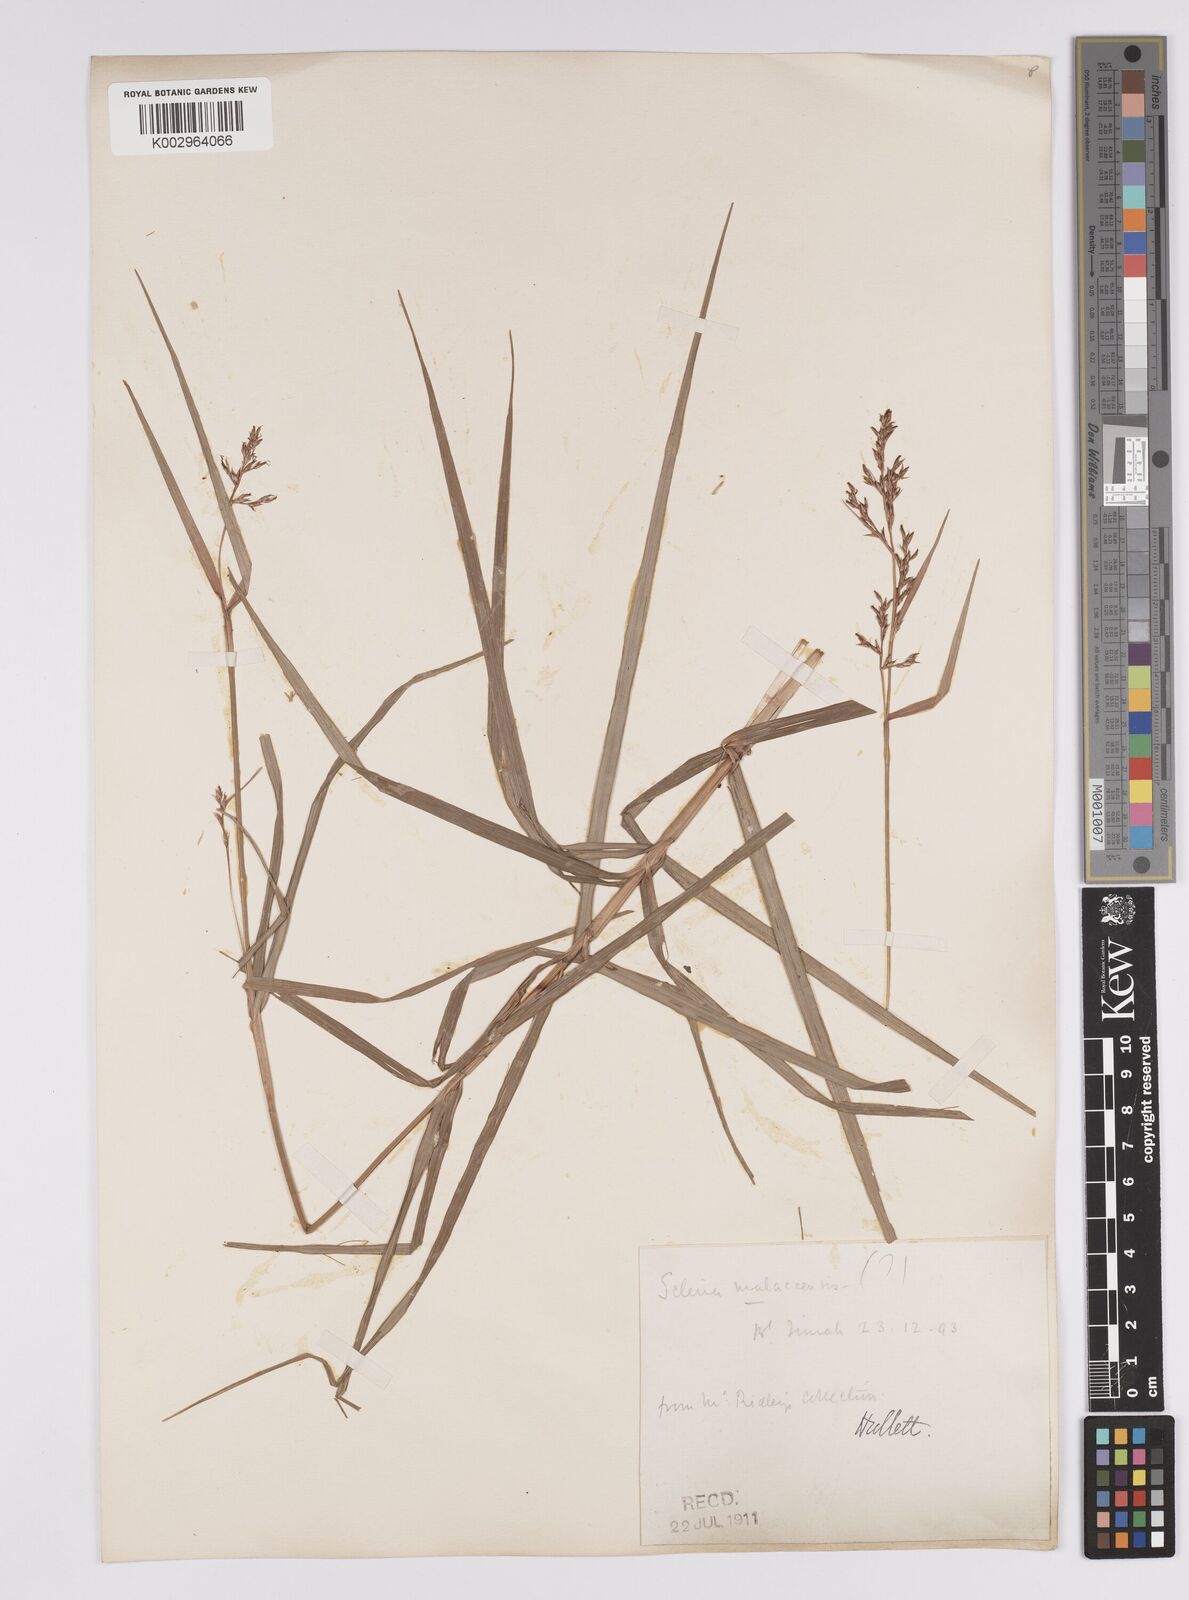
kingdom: Plantae
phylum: Tracheophyta
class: Liliopsida
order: Poales
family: Cyperaceae
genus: Scleria
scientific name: Scleria purpurascens
